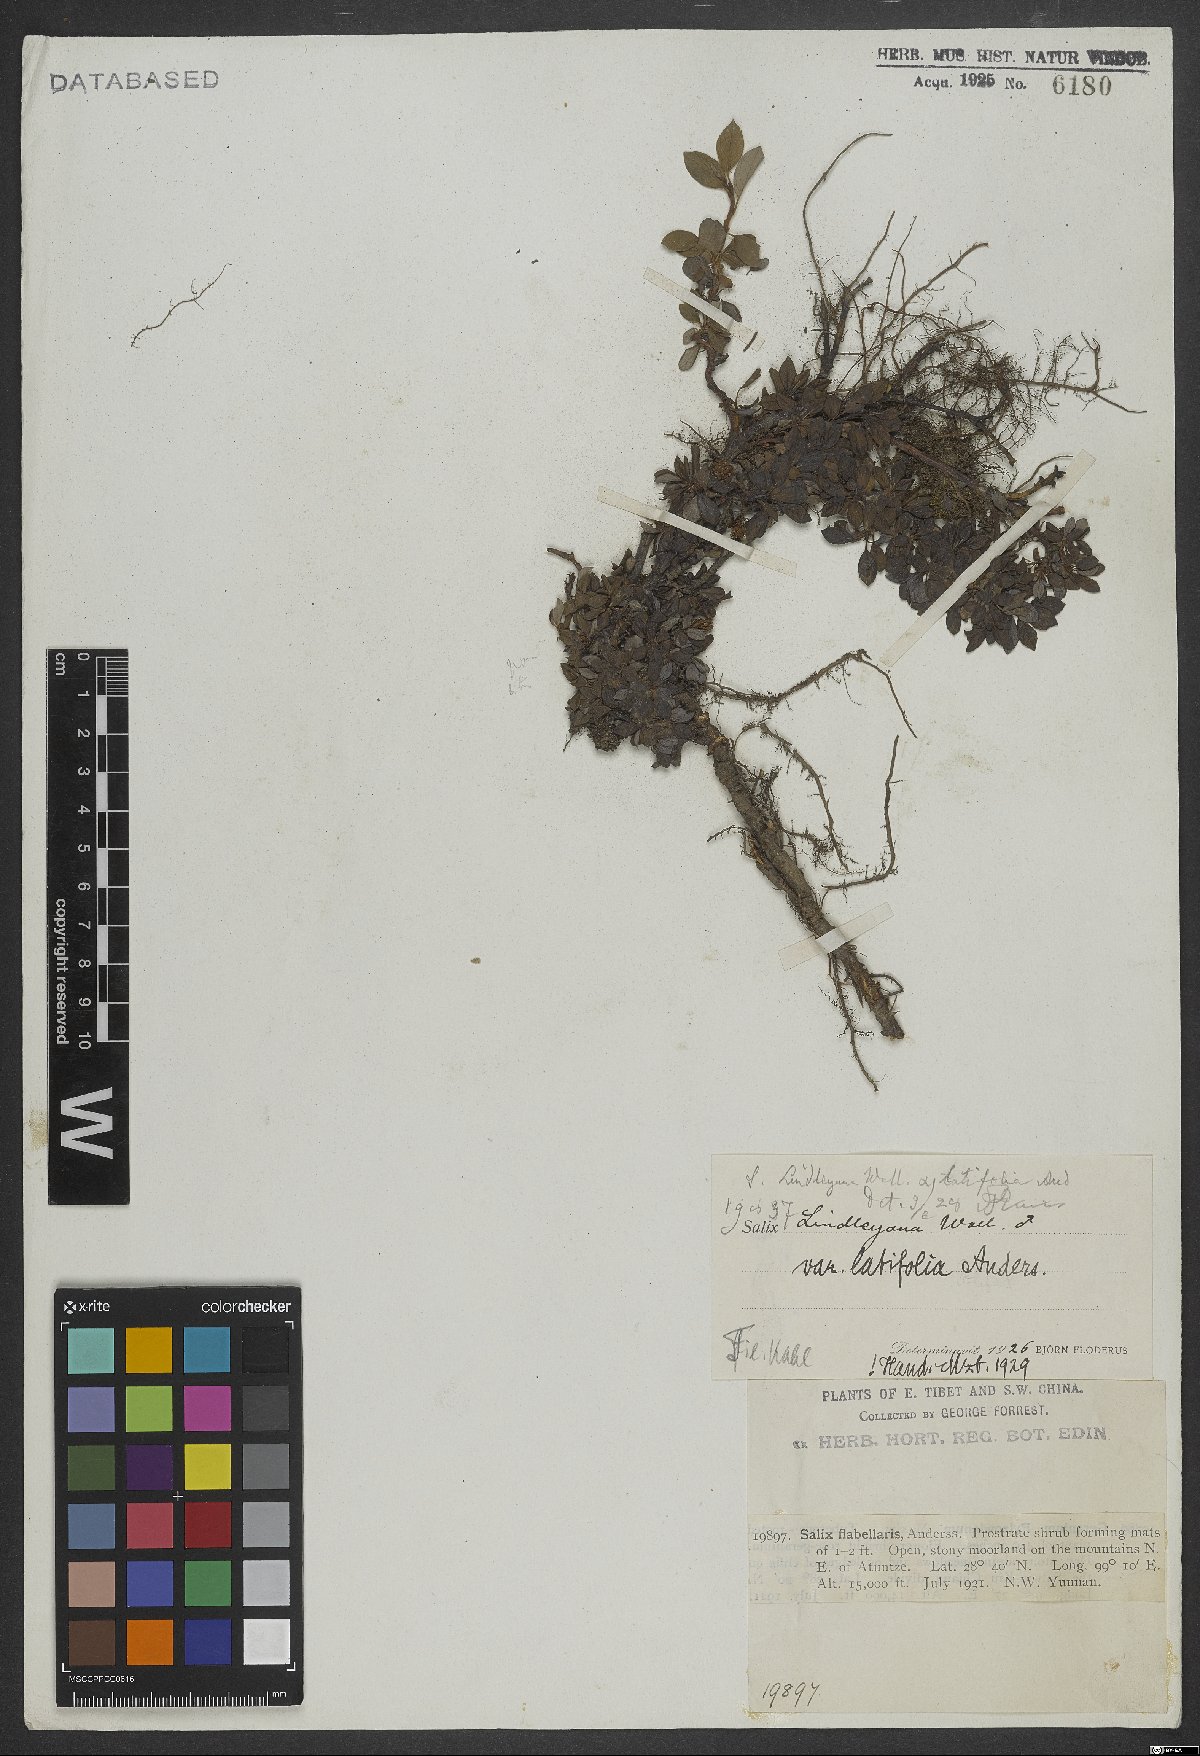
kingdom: Plantae
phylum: Tracheophyta
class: Magnoliopsida
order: Malpighiales
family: Salicaceae
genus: Salix
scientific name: Salix lindleyana
